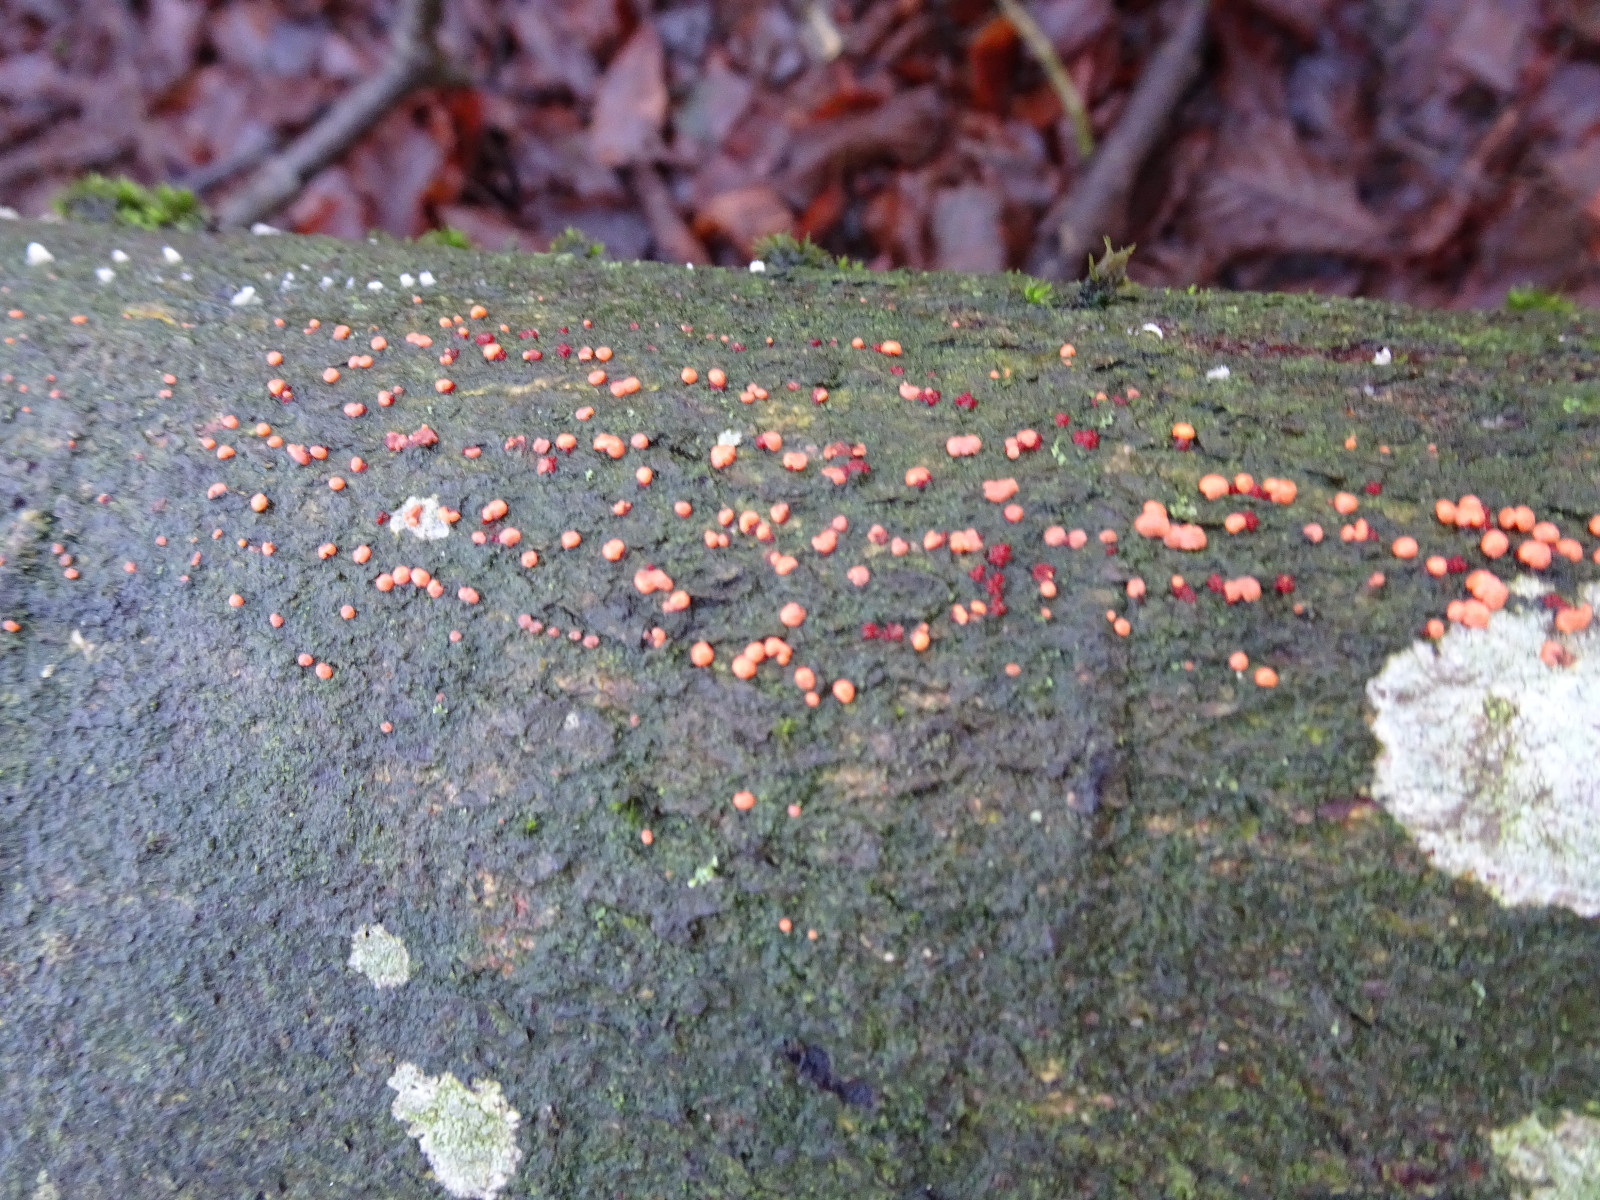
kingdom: Fungi
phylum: Ascomycota
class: Sordariomycetes
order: Hypocreales
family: Nectriaceae
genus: Nectria
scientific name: Nectria cinnabarina
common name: almindelig cinnobersvamp
